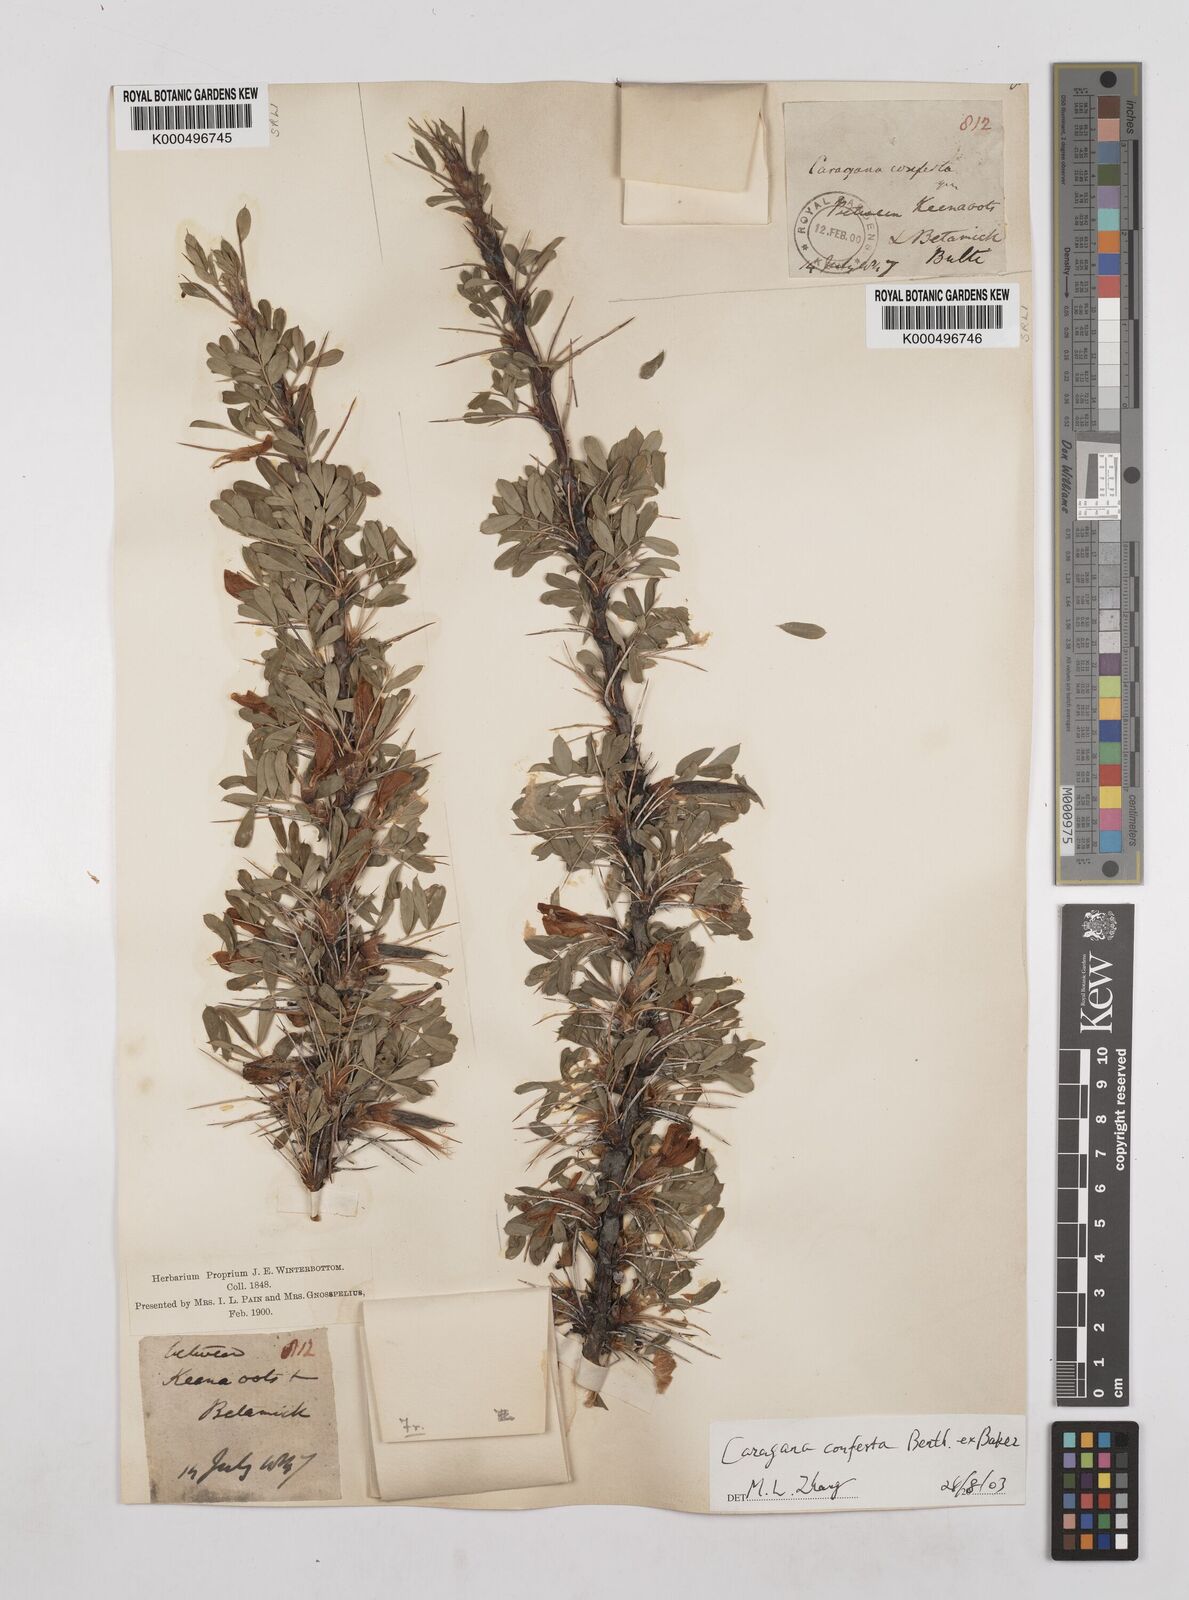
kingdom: Plantae
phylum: Tracheophyta
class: Magnoliopsida
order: Fabales
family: Fabaceae
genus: Caragana
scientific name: Caragana conferta
